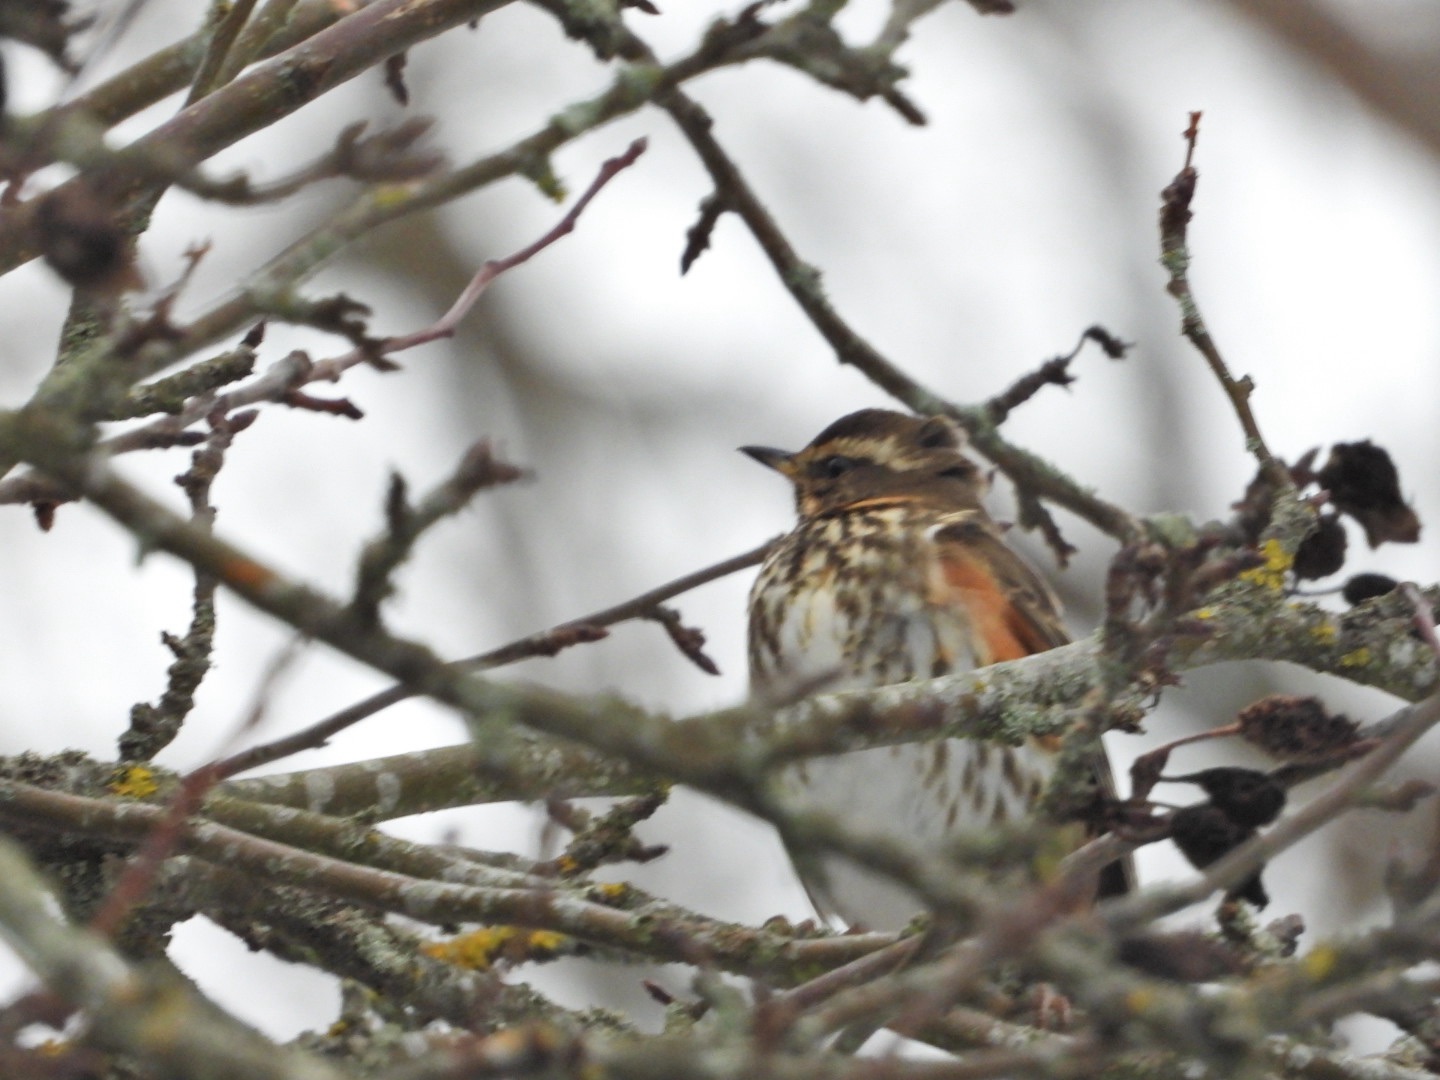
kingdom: Animalia
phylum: Chordata
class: Aves
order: Passeriformes
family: Turdidae
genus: Turdus
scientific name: Turdus iliacus
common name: Vindrossel
